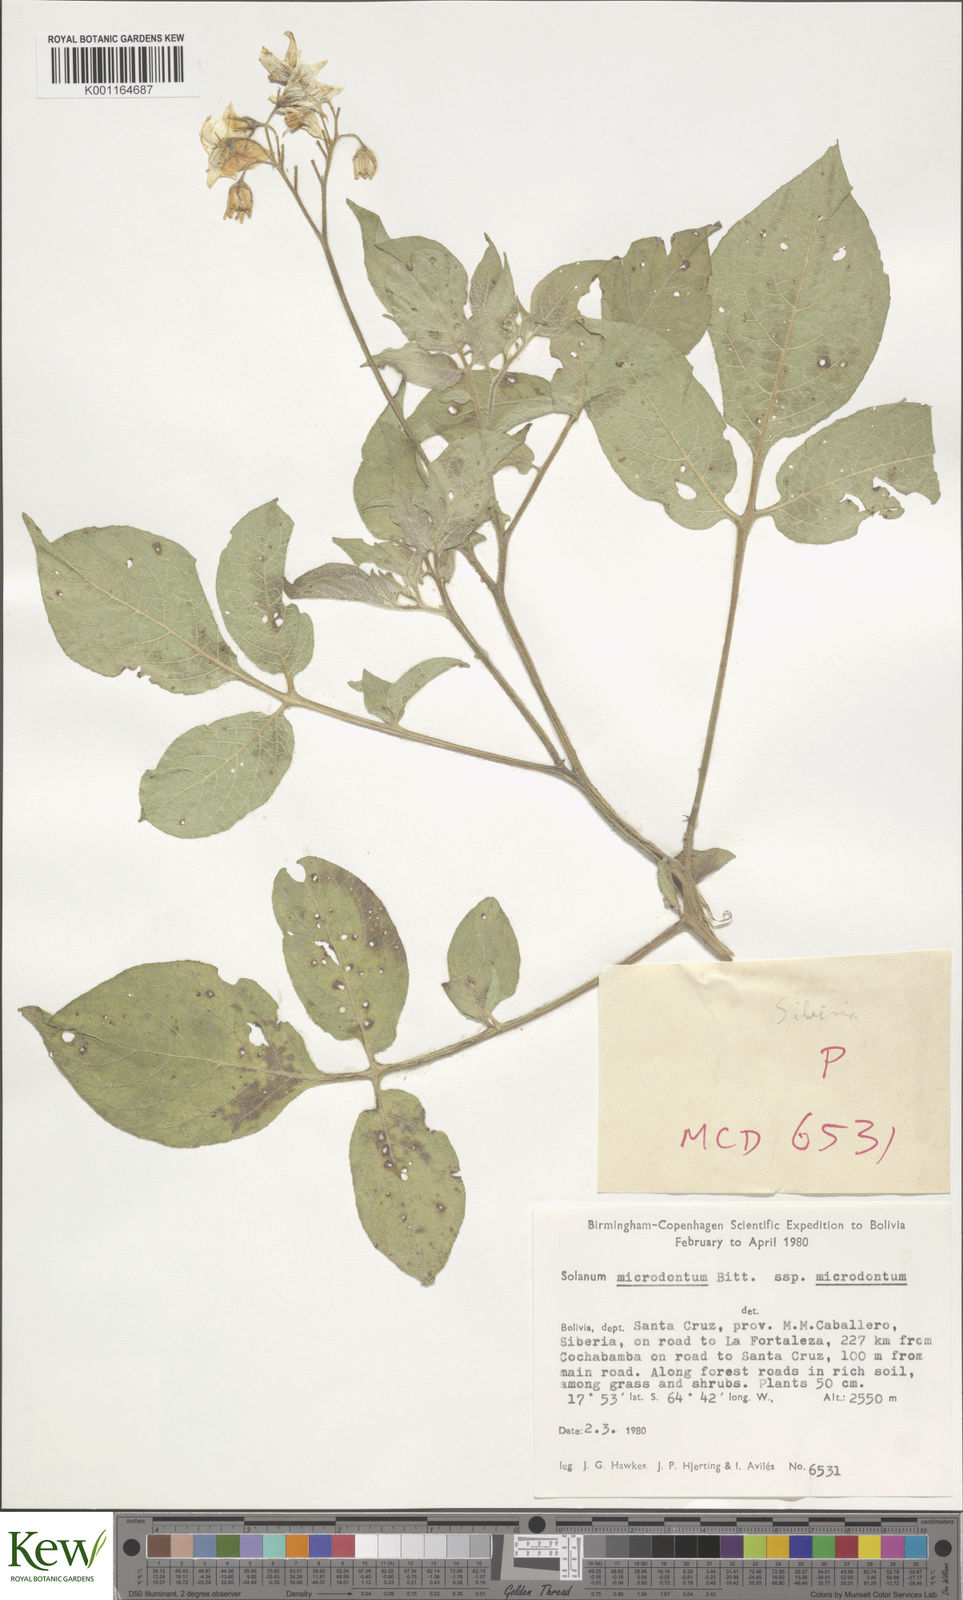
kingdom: Plantae
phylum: Tracheophyta
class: Magnoliopsida
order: Solanales
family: Solanaceae
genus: Solanum
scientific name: Solanum microdontum
